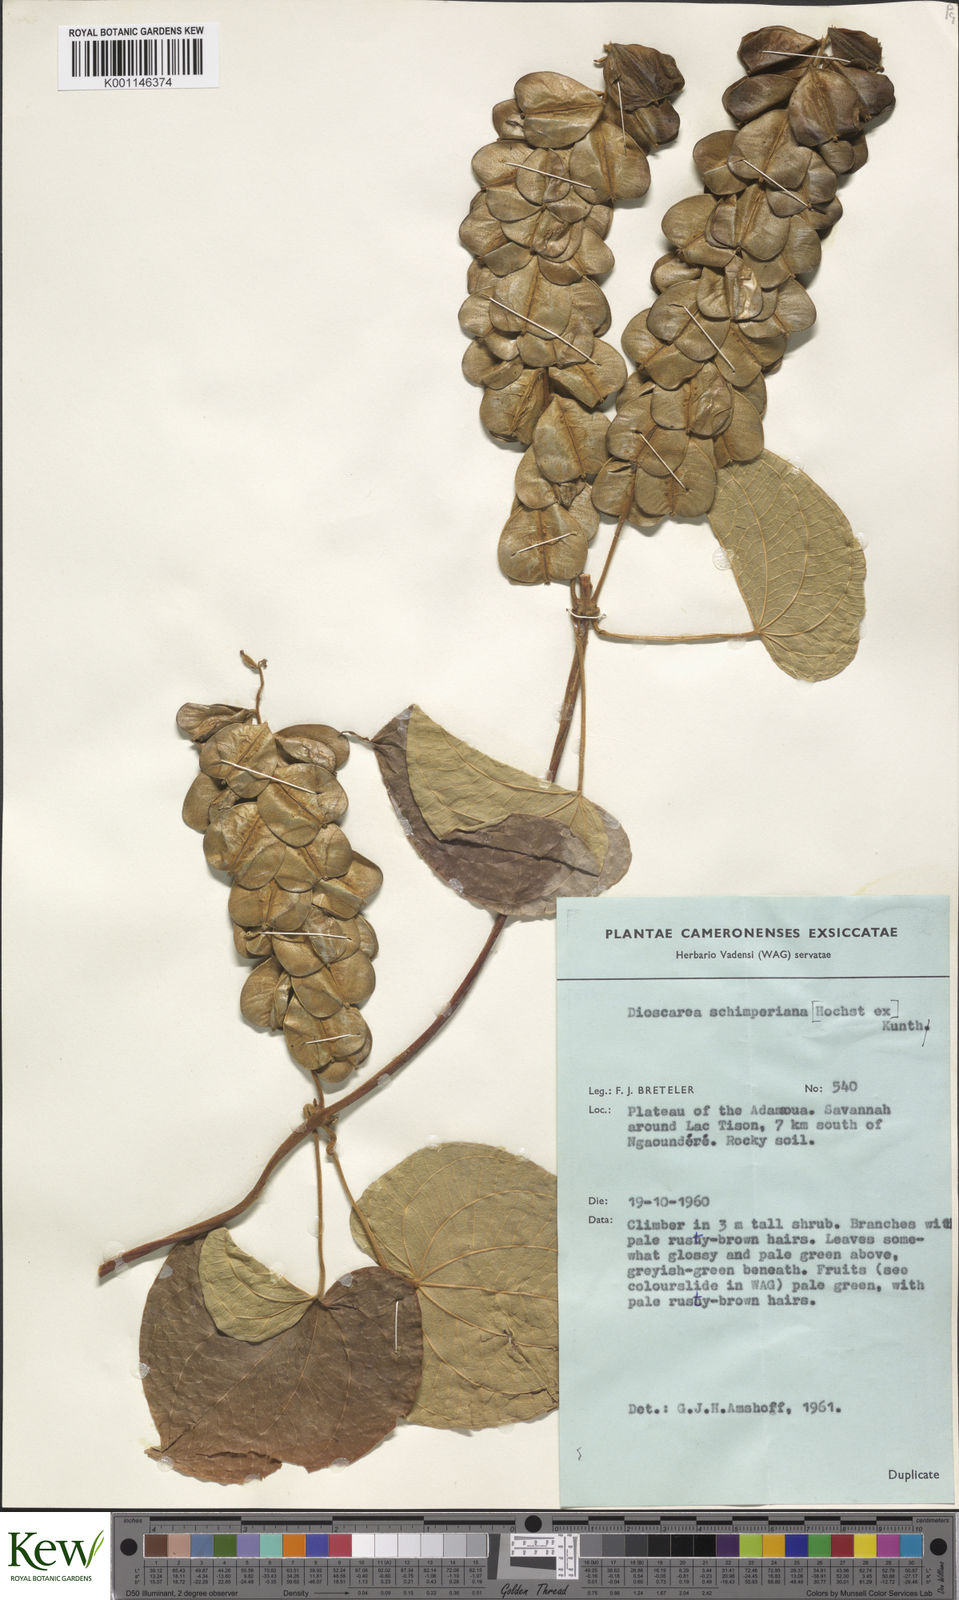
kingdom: Plantae
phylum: Tracheophyta
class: Liliopsida
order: Dioscoreales
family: Dioscoreaceae
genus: Dioscorea
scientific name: Dioscorea schimperiana
